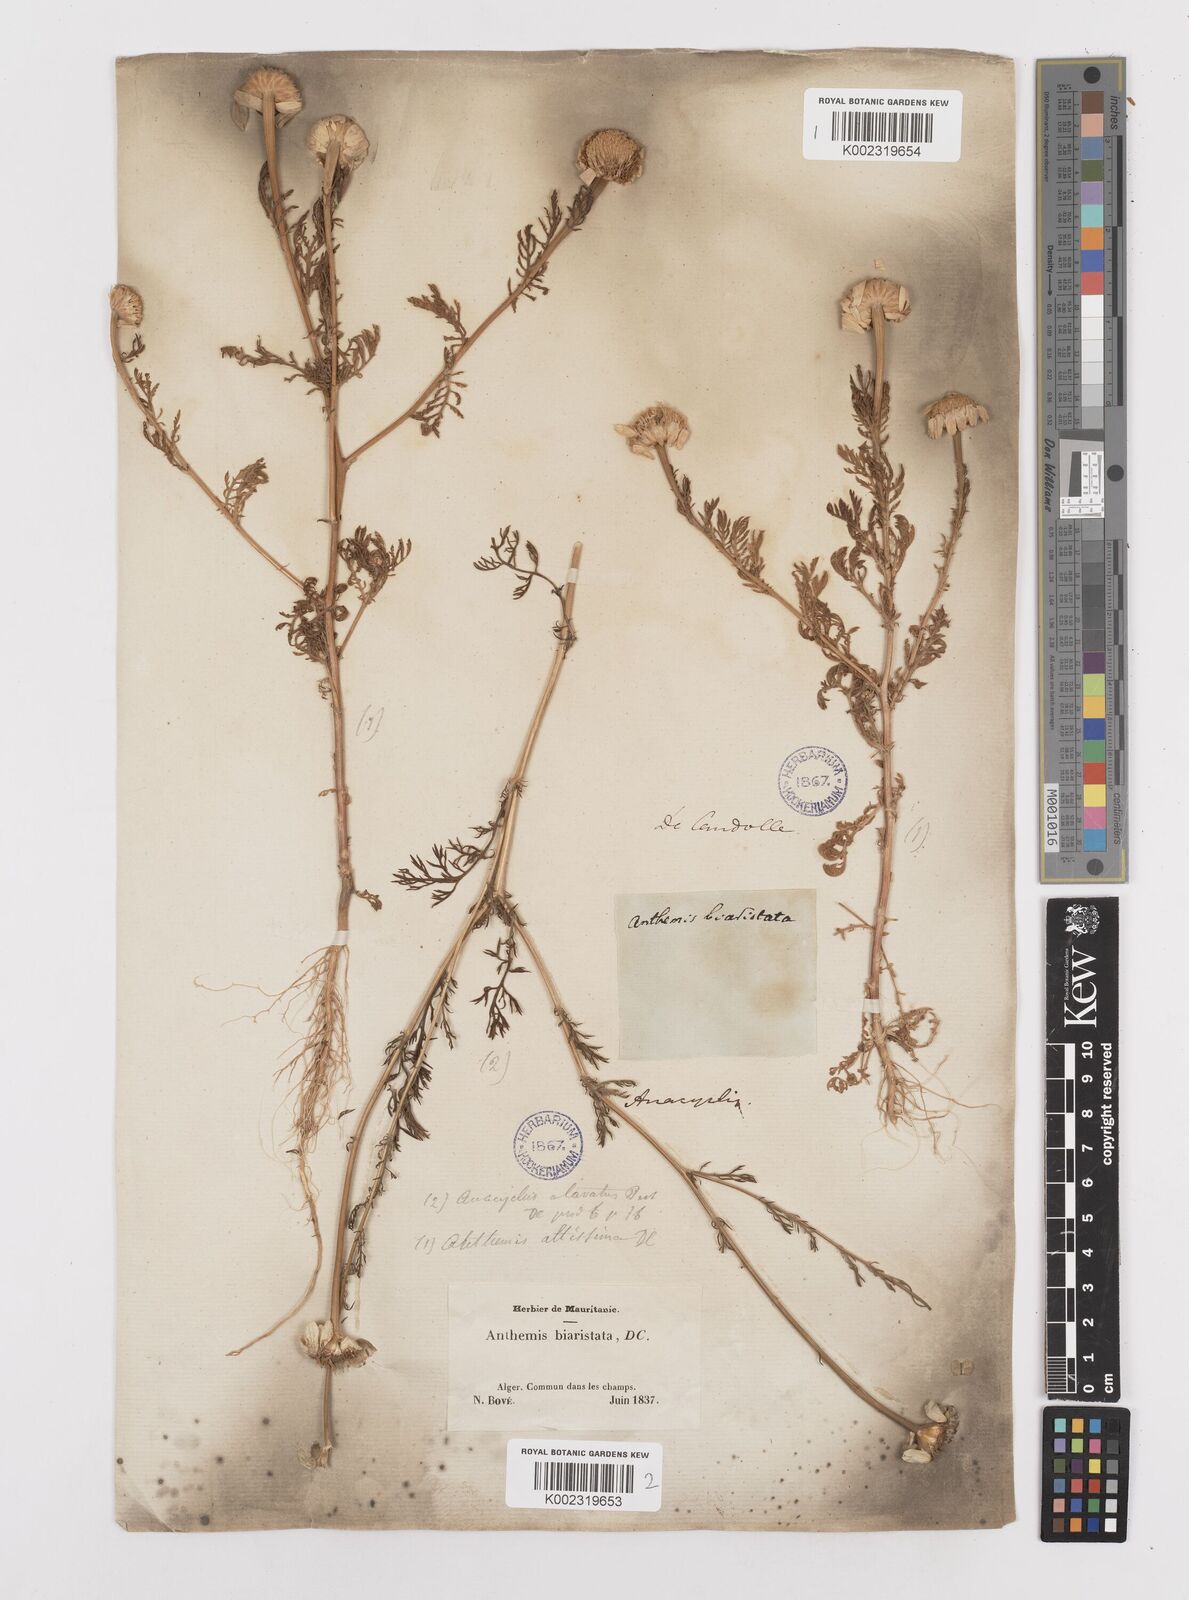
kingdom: Plantae
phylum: Tracheophyta
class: Magnoliopsida
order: Asterales
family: Asteraceae
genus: Anacyclus
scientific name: Anacyclus linearilobus
